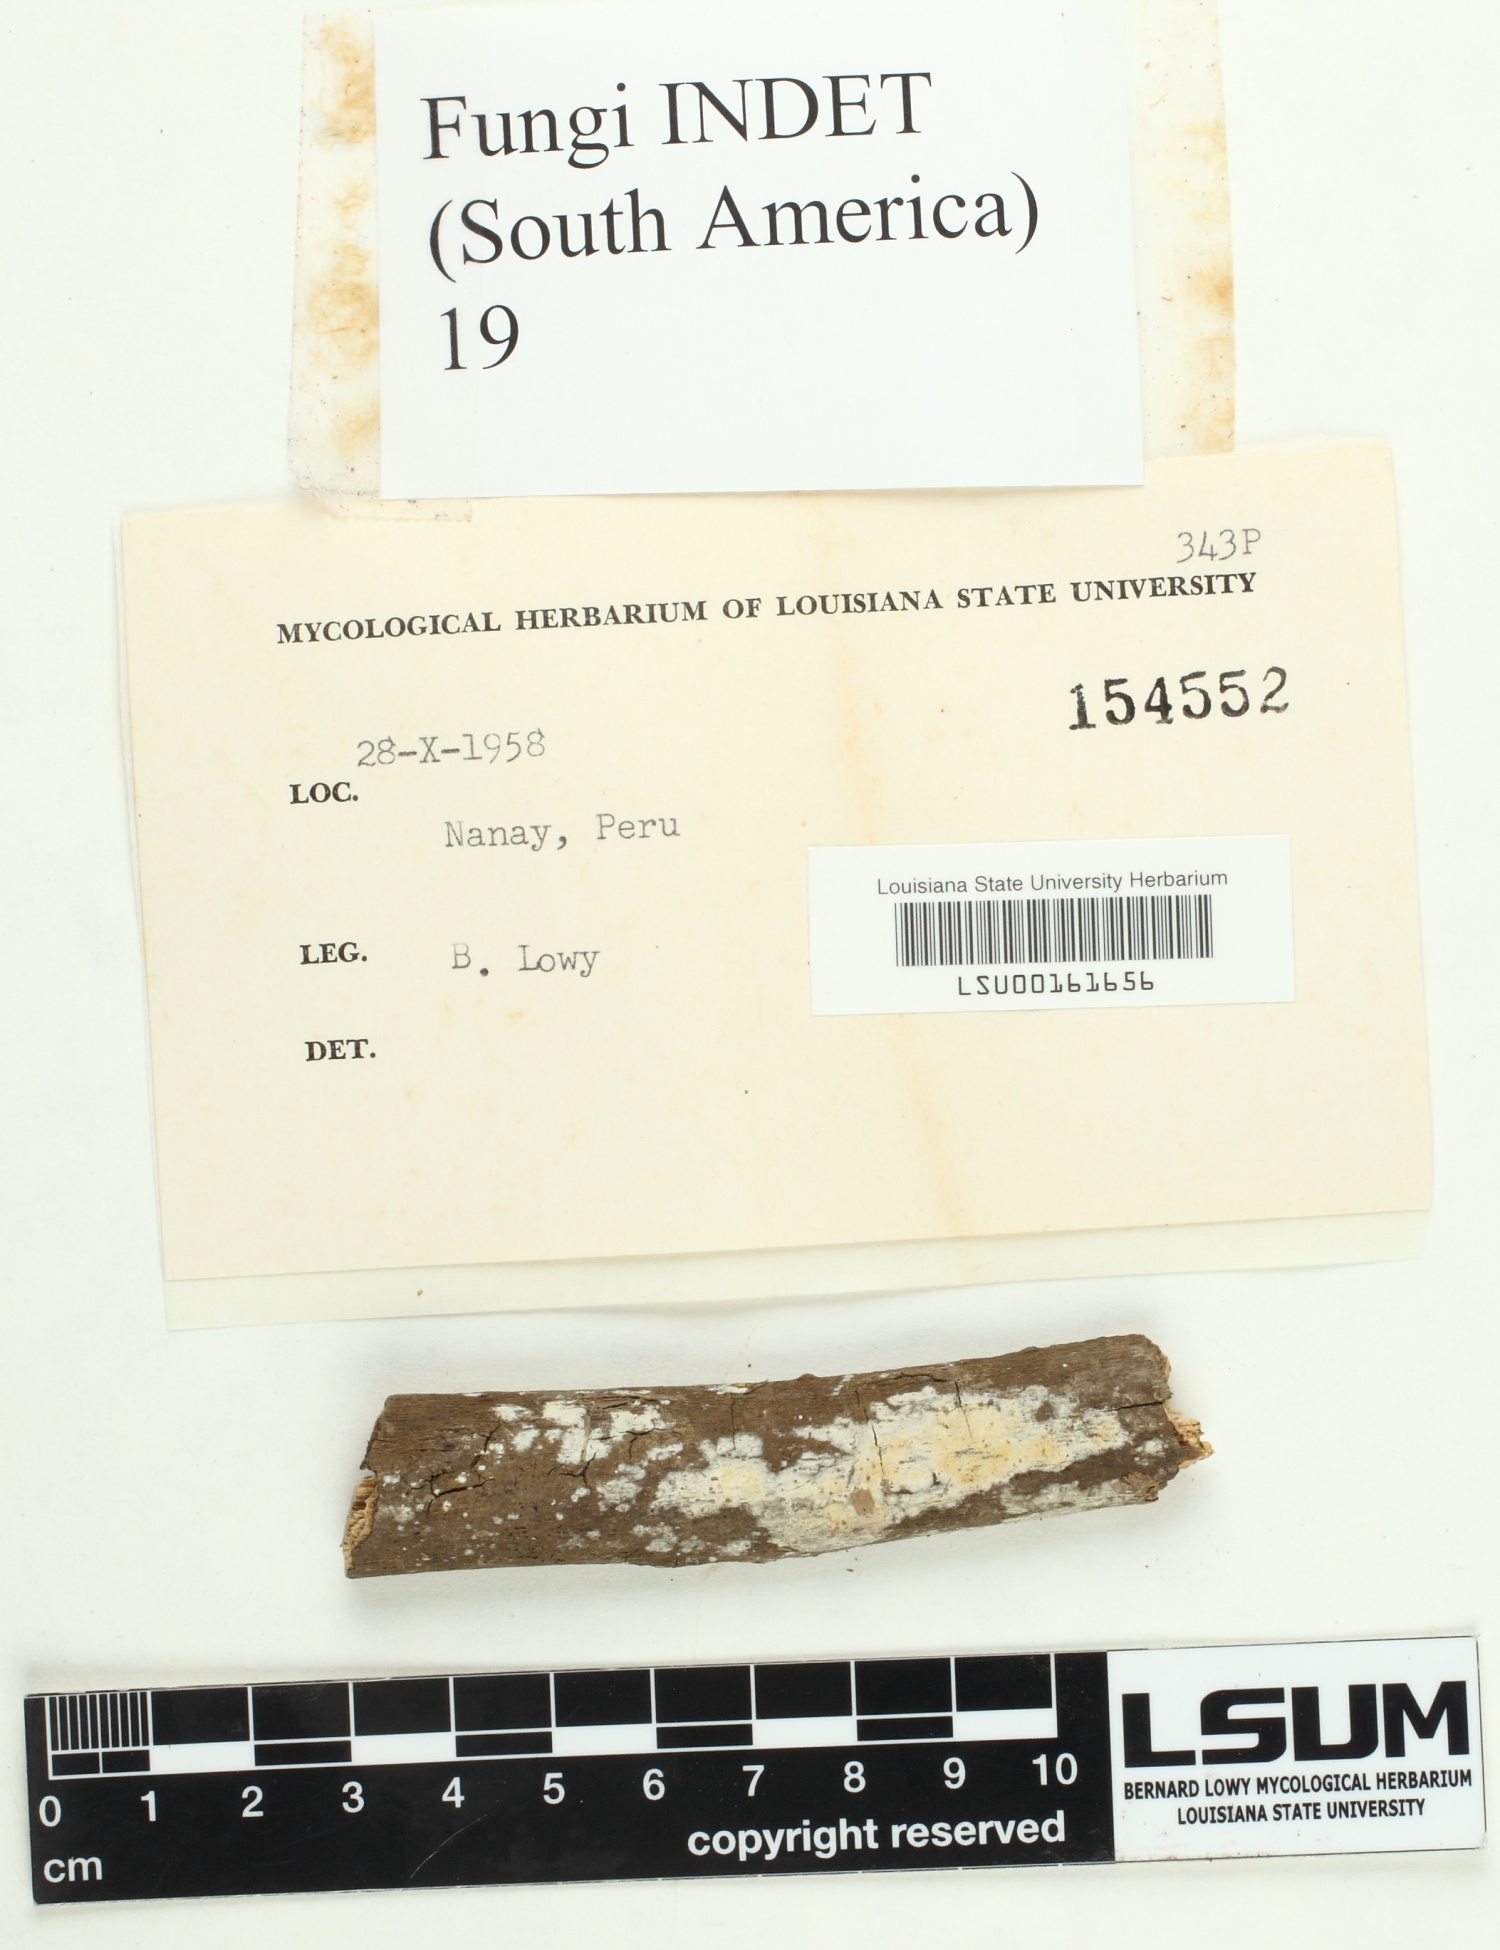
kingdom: Fungi
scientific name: Fungi
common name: Fungi
